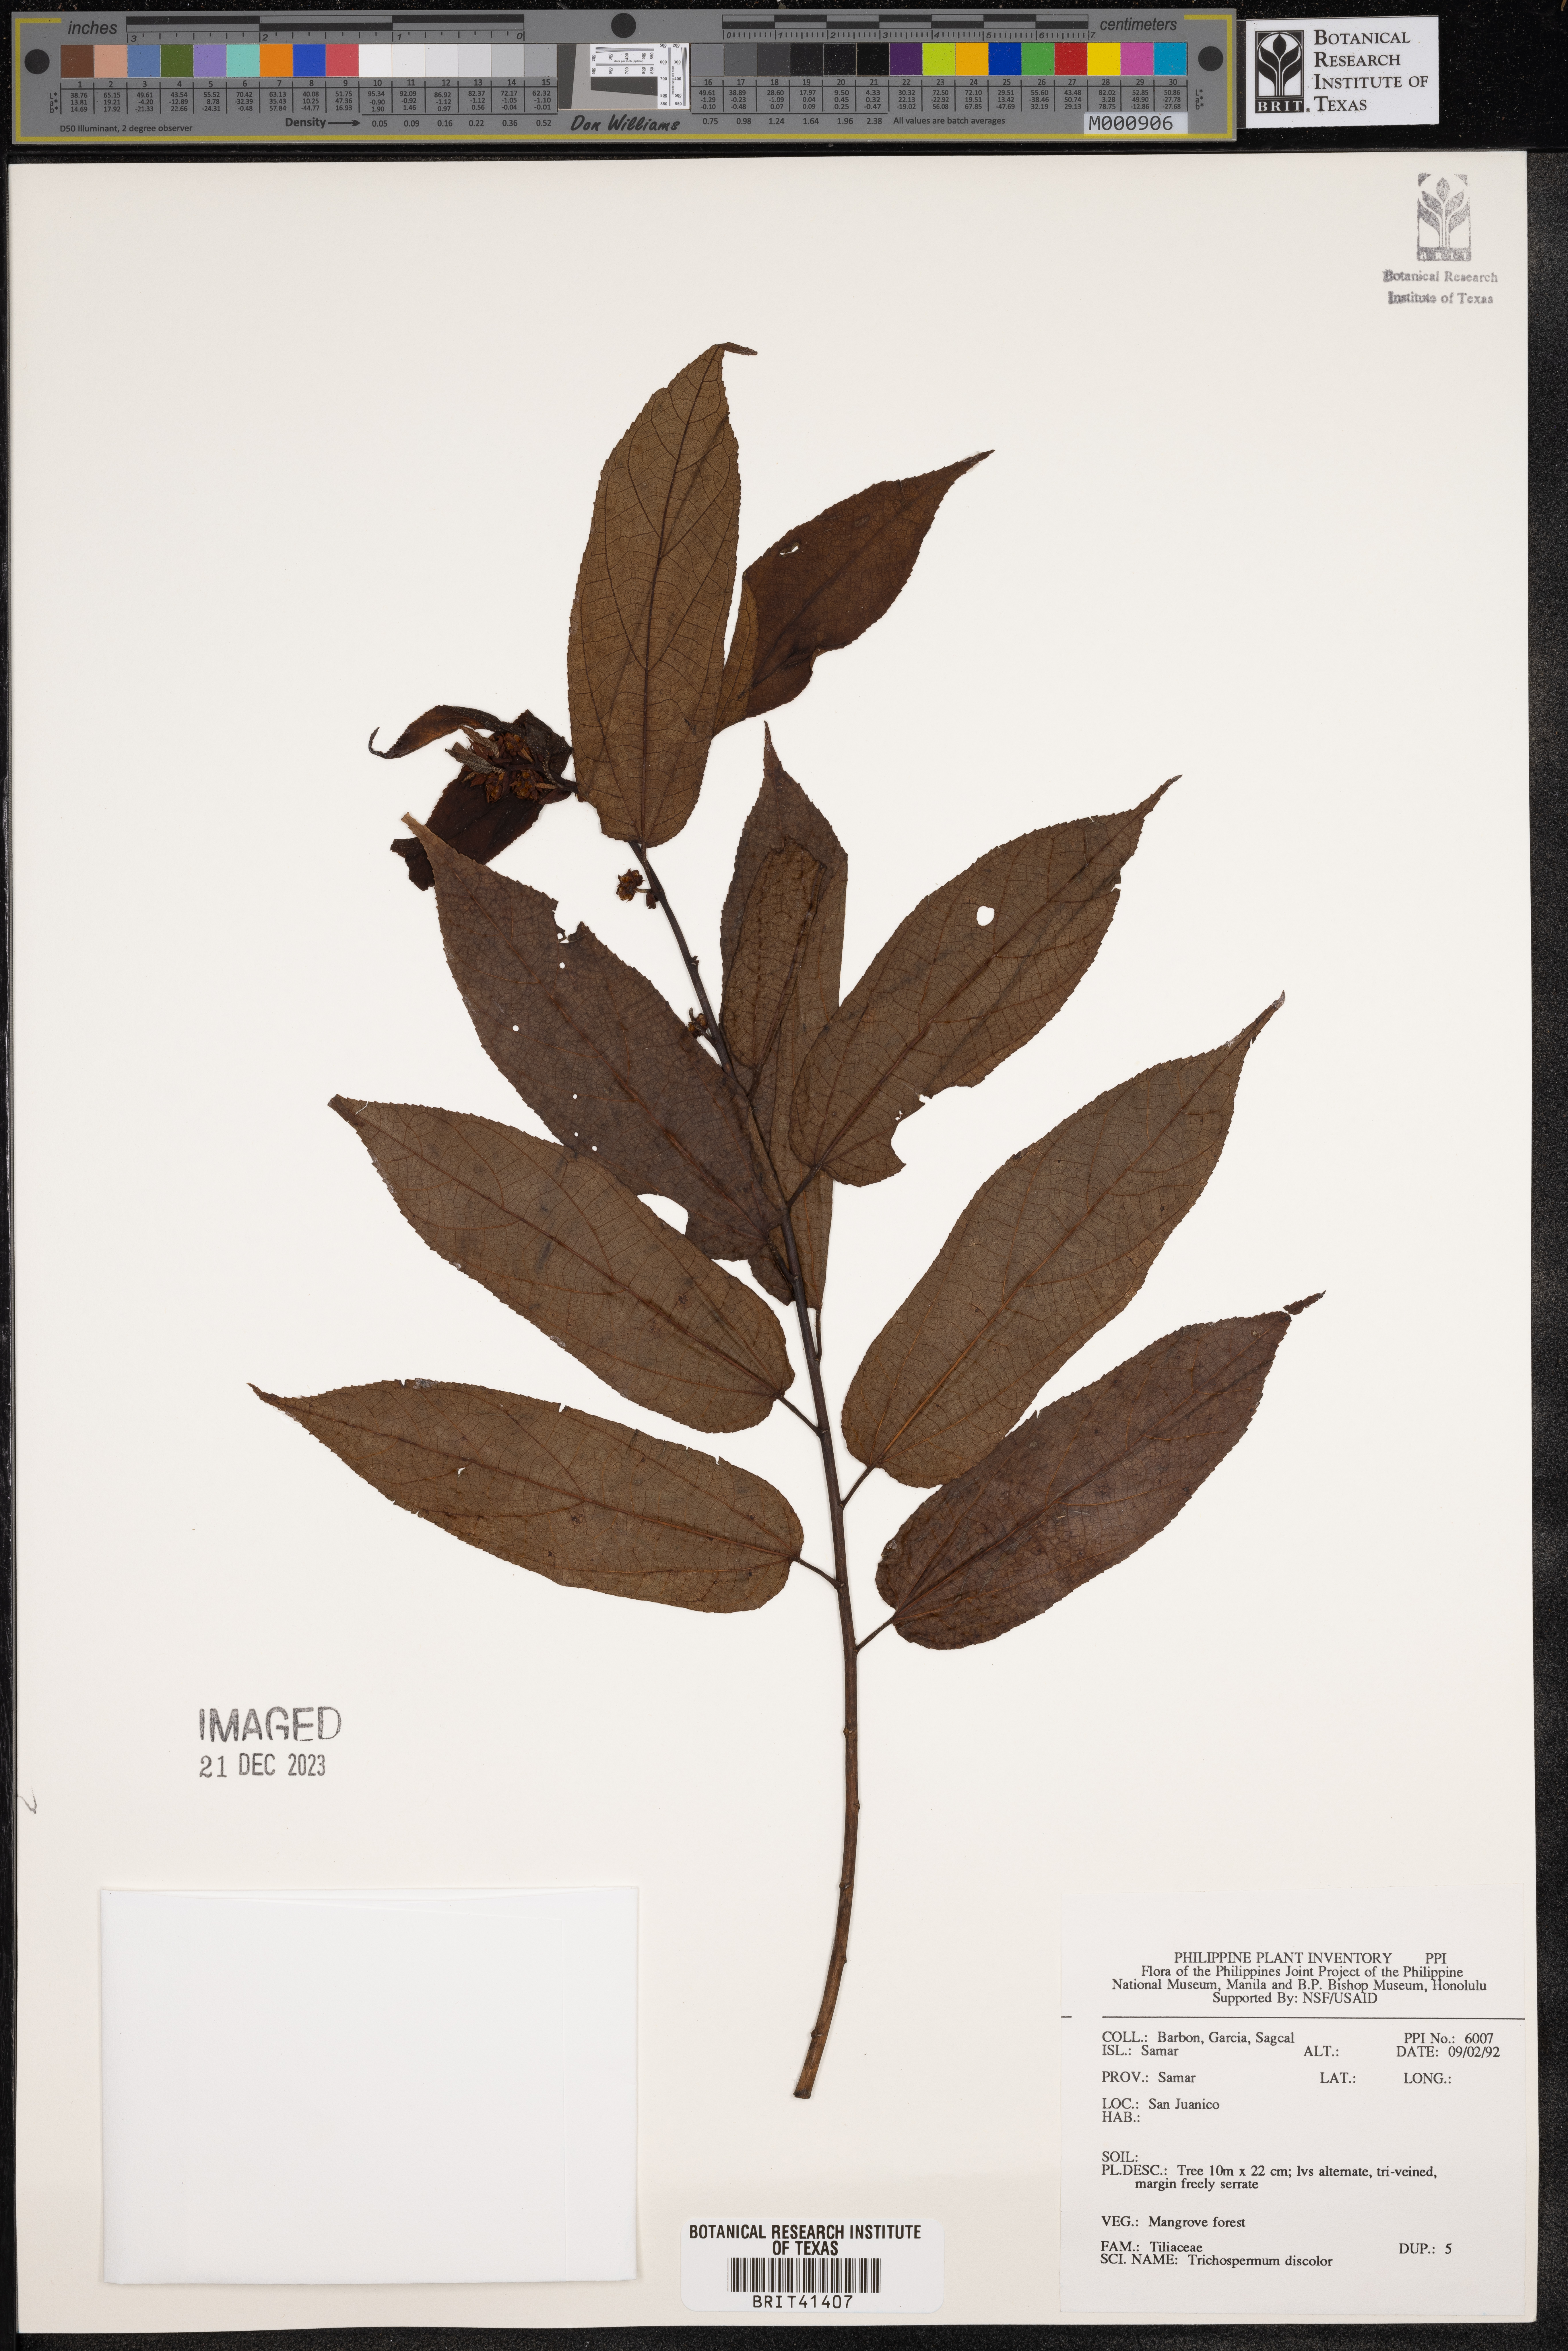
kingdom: Plantae
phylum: Tracheophyta
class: Magnoliopsida
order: Malvales
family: Malvaceae
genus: Trichospermum
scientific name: Trichospermum discolor
